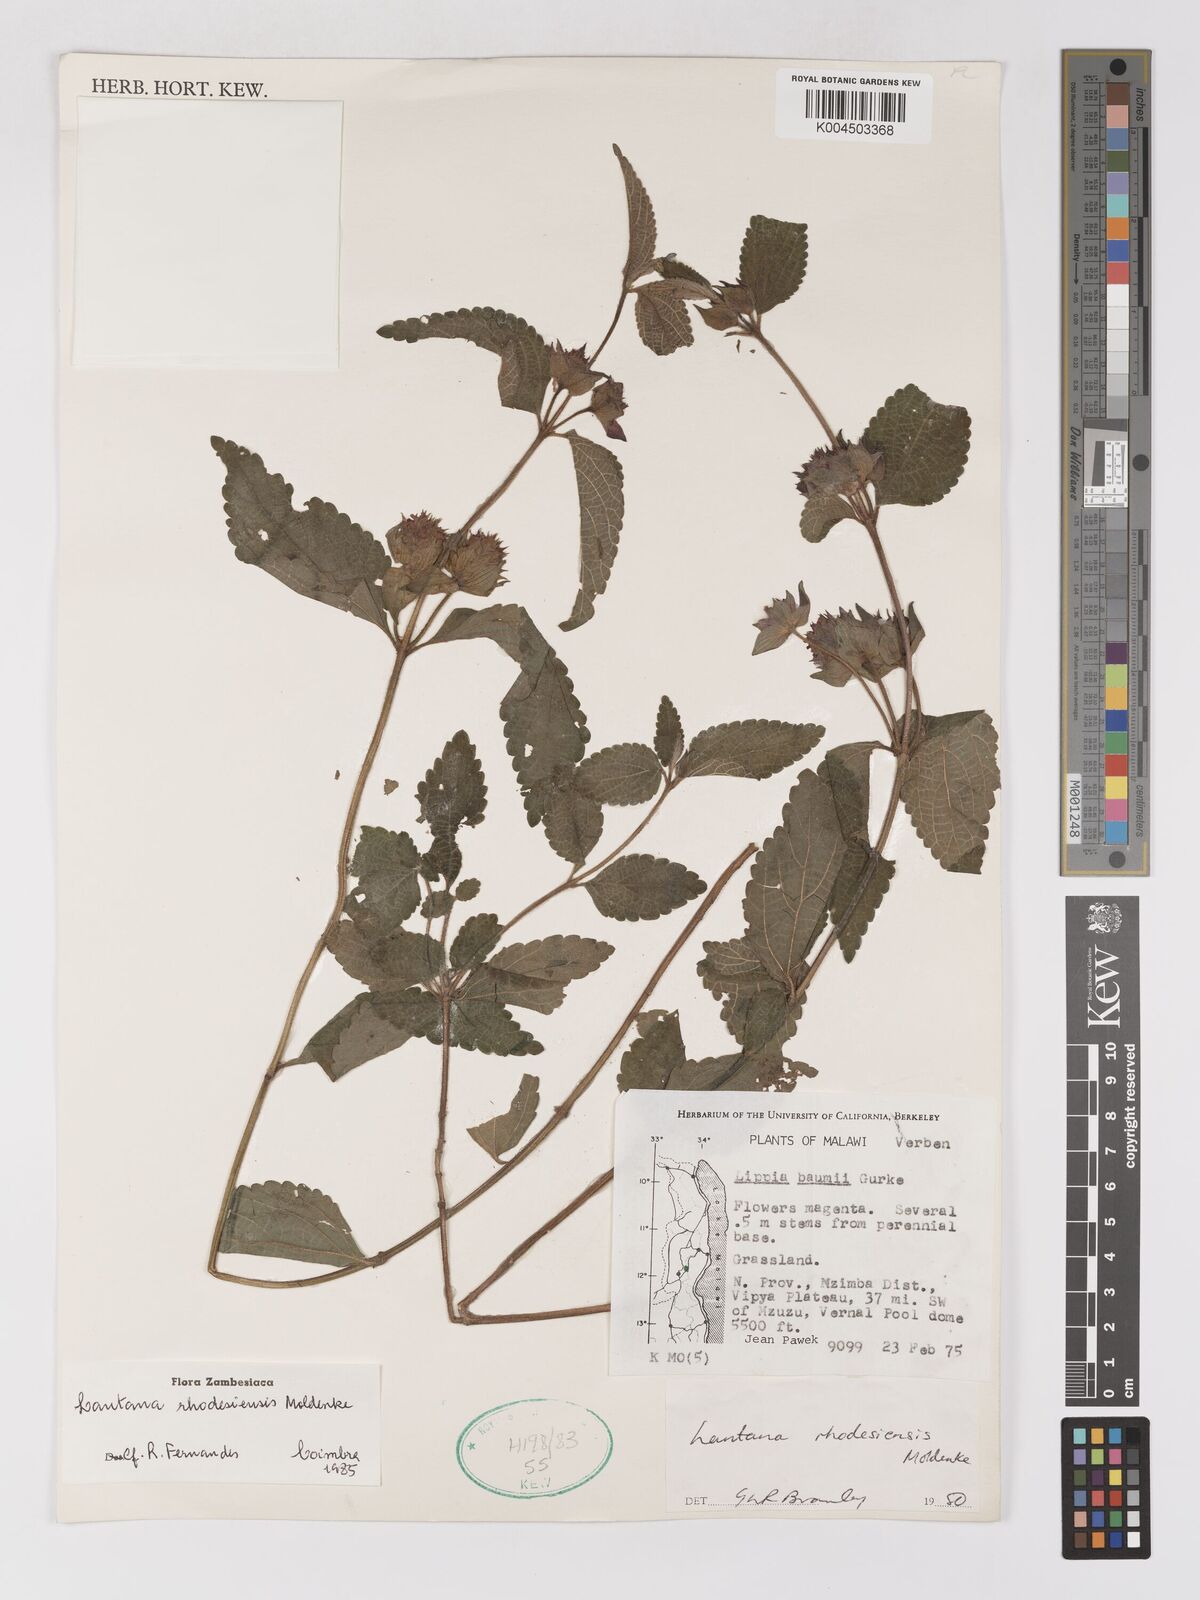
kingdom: Plantae
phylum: Tracheophyta
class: Magnoliopsida
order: Lamiales
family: Verbenaceae
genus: Lantana
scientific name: Lantana ukambensis
